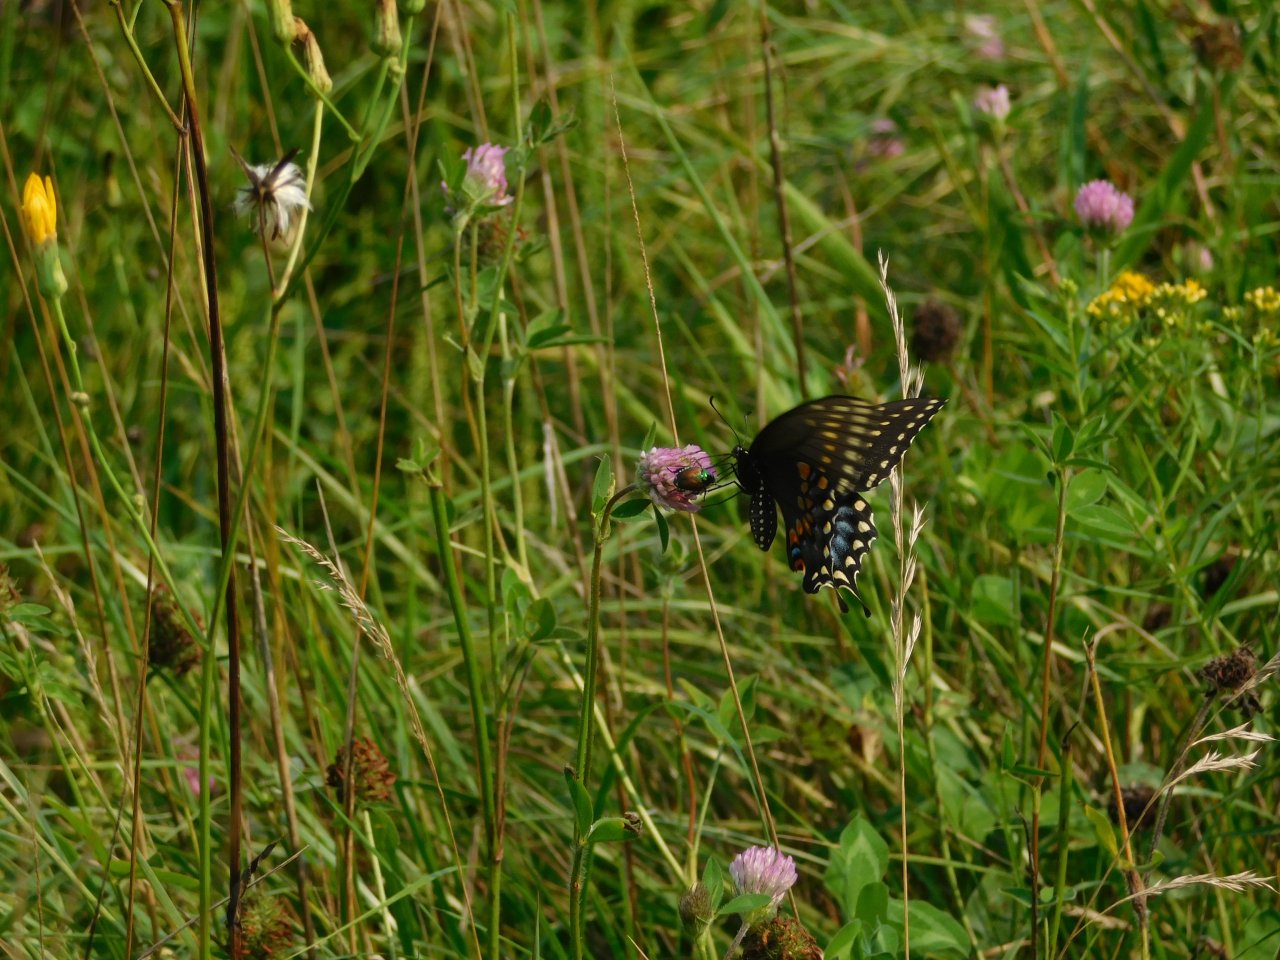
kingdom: Animalia
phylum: Arthropoda
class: Insecta
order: Lepidoptera
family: Papilionidae
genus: Papilio
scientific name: Papilio polyxenes
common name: Black Swallowtail
